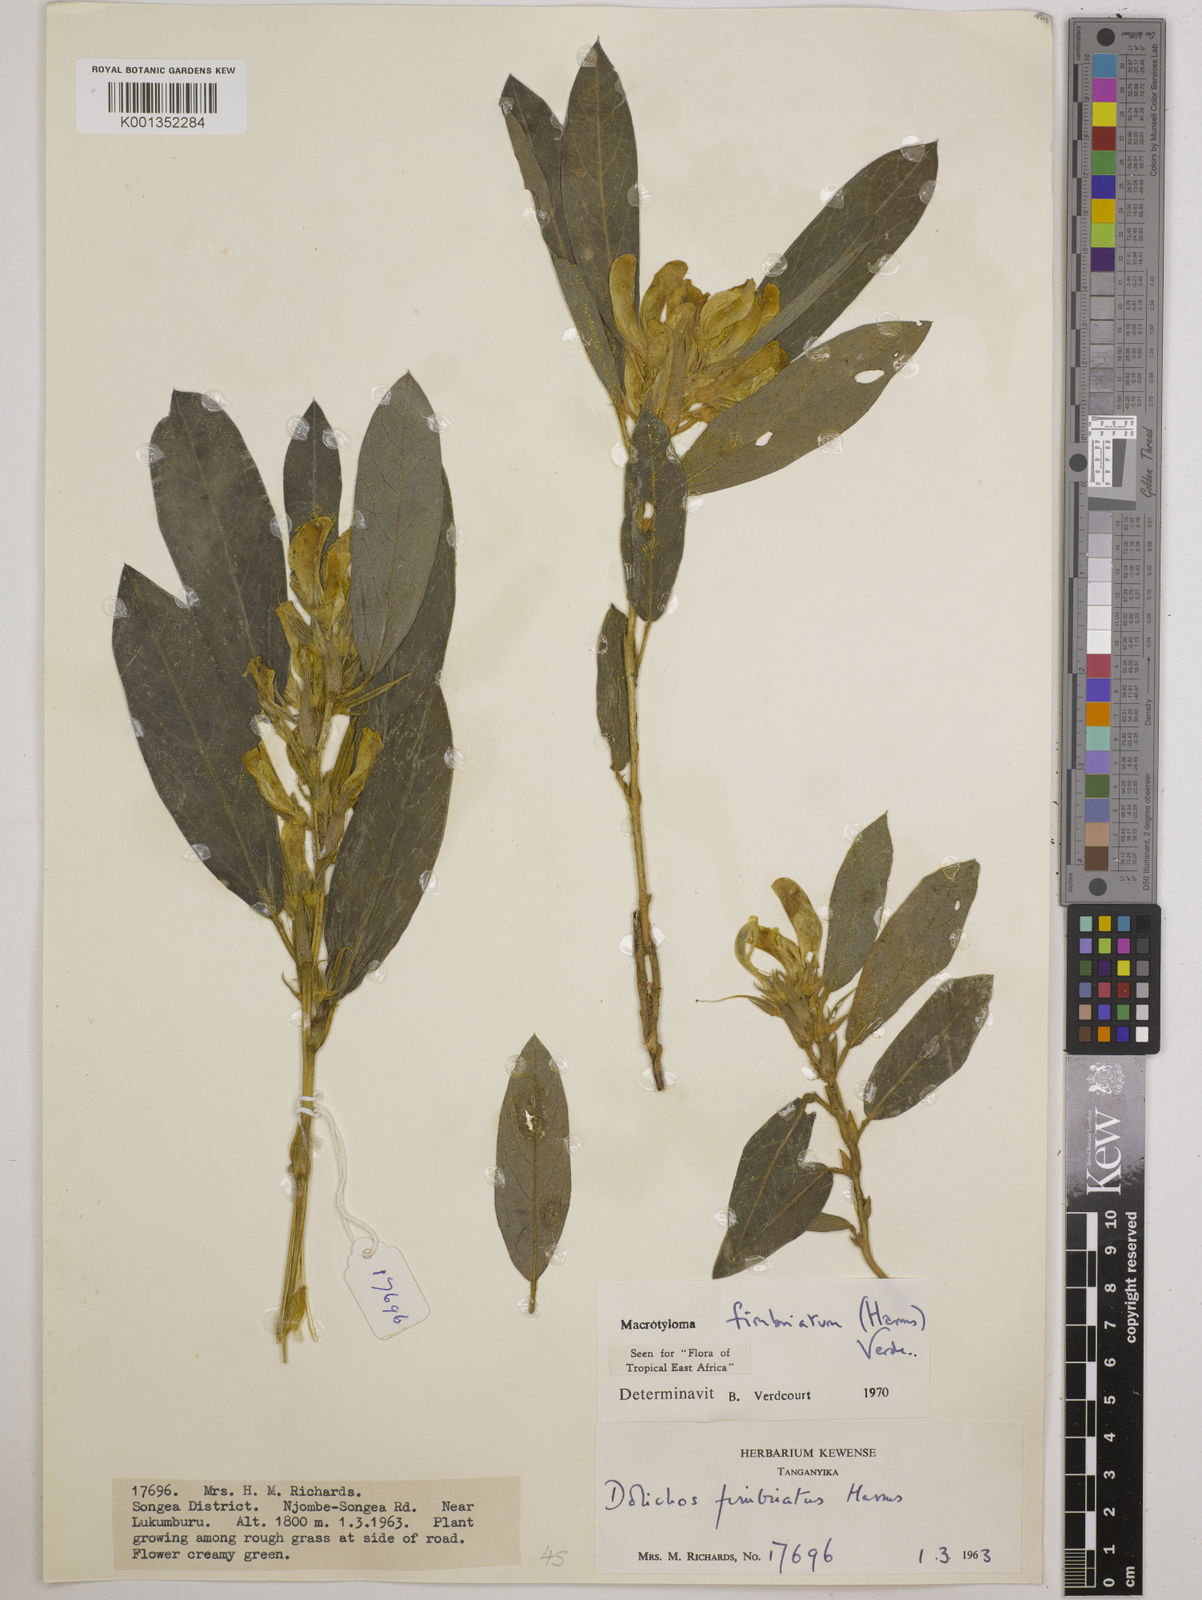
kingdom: Plantae
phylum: Tracheophyta
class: Magnoliopsida
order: Fabales
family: Fabaceae
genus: Macrotyloma
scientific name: Macrotyloma fimbriatum
